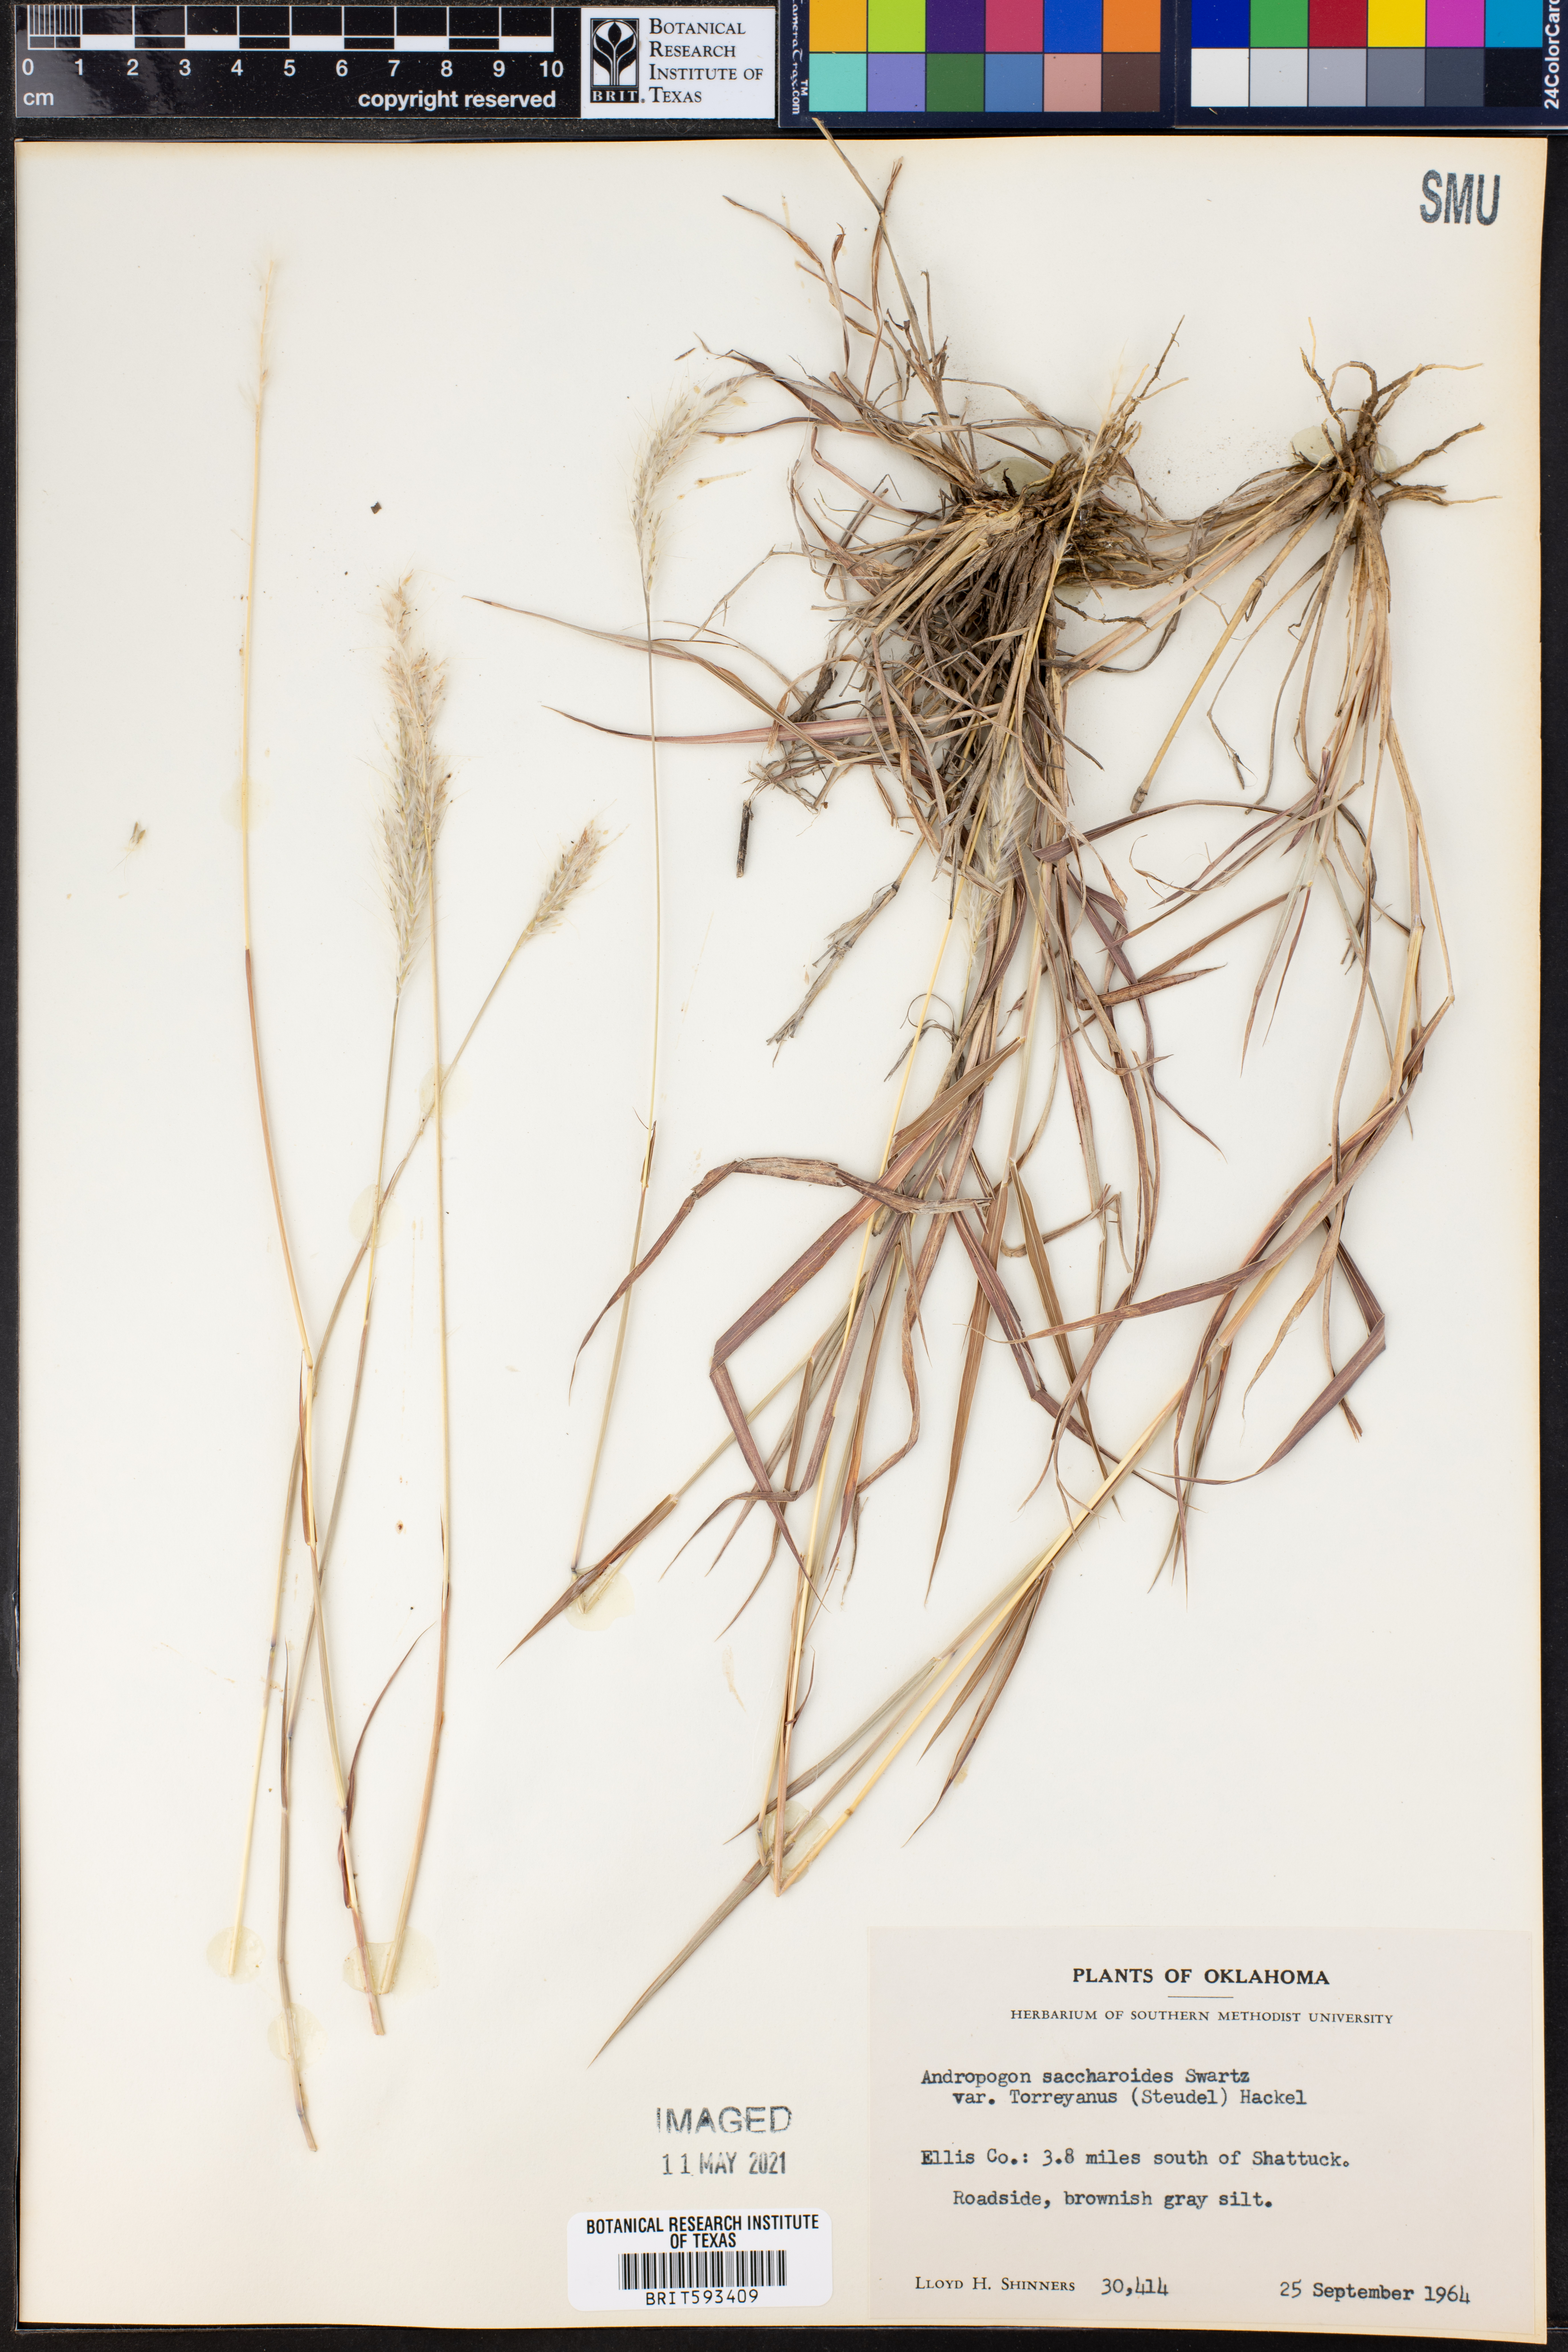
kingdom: Plantae
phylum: Tracheophyta
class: Liliopsida
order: Poales
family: Poaceae
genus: Bothriochloa
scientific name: Bothriochloa torreyana
